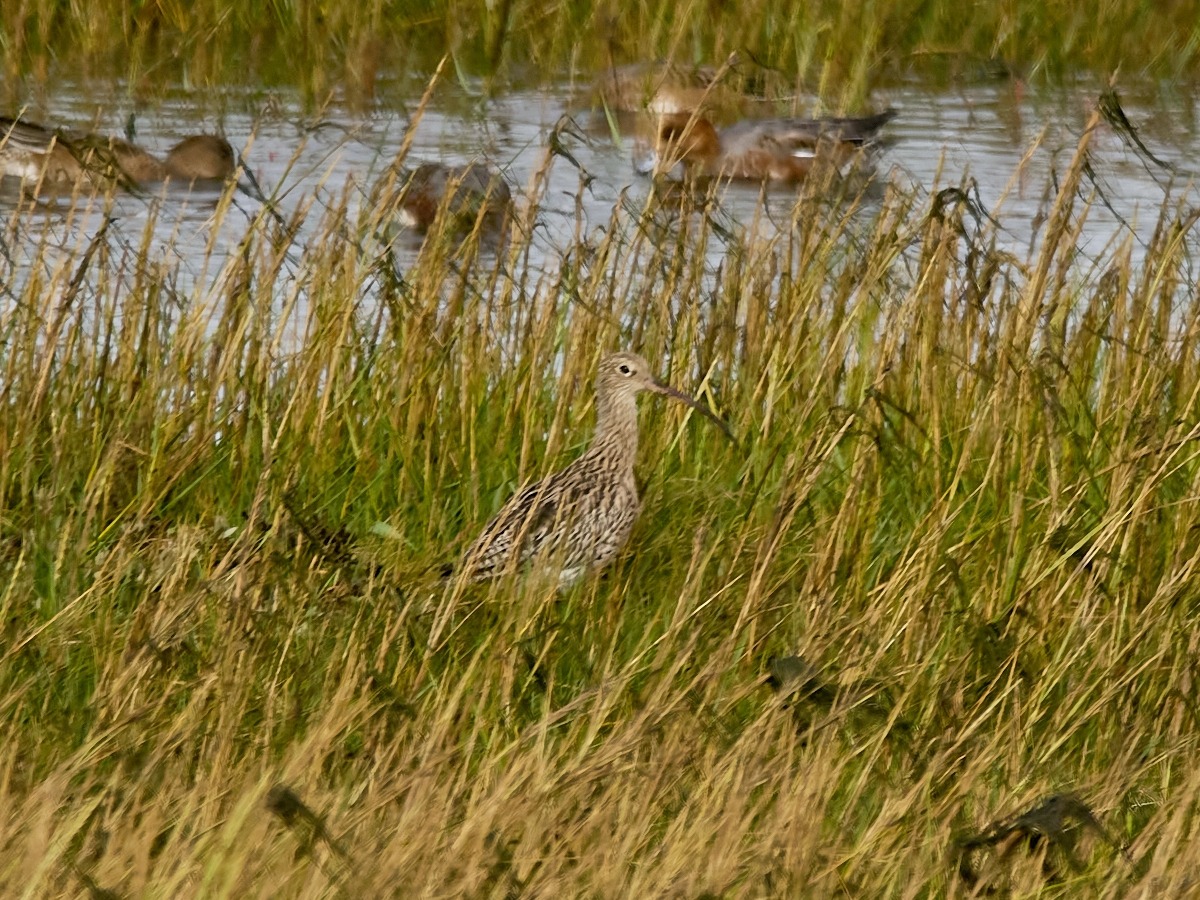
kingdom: Animalia
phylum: Chordata
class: Aves
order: Charadriiformes
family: Scolopacidae
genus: Numenius
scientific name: Numenius arquata
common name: Storspove
